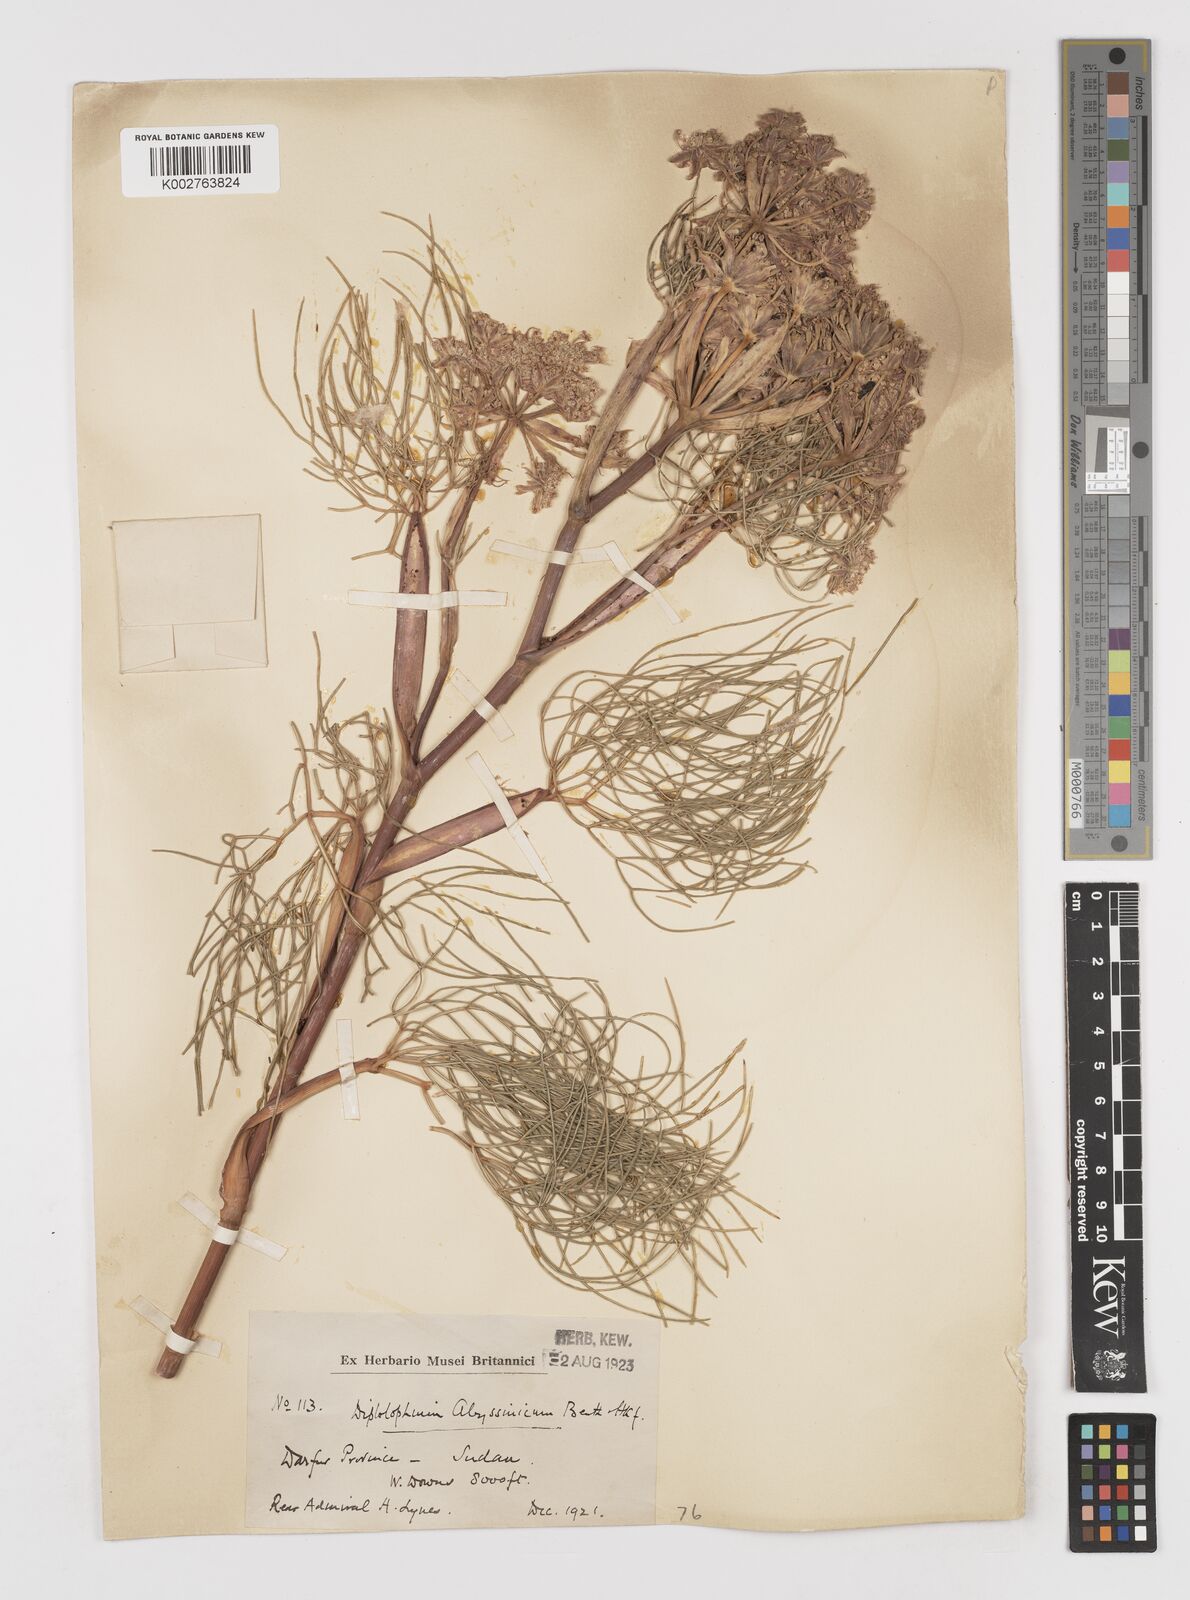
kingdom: Plantae
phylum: Tracheophyta
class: Magnoliopsida
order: Apiales
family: Apiaceae
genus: Diplolophium
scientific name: Diplolophium africanum
